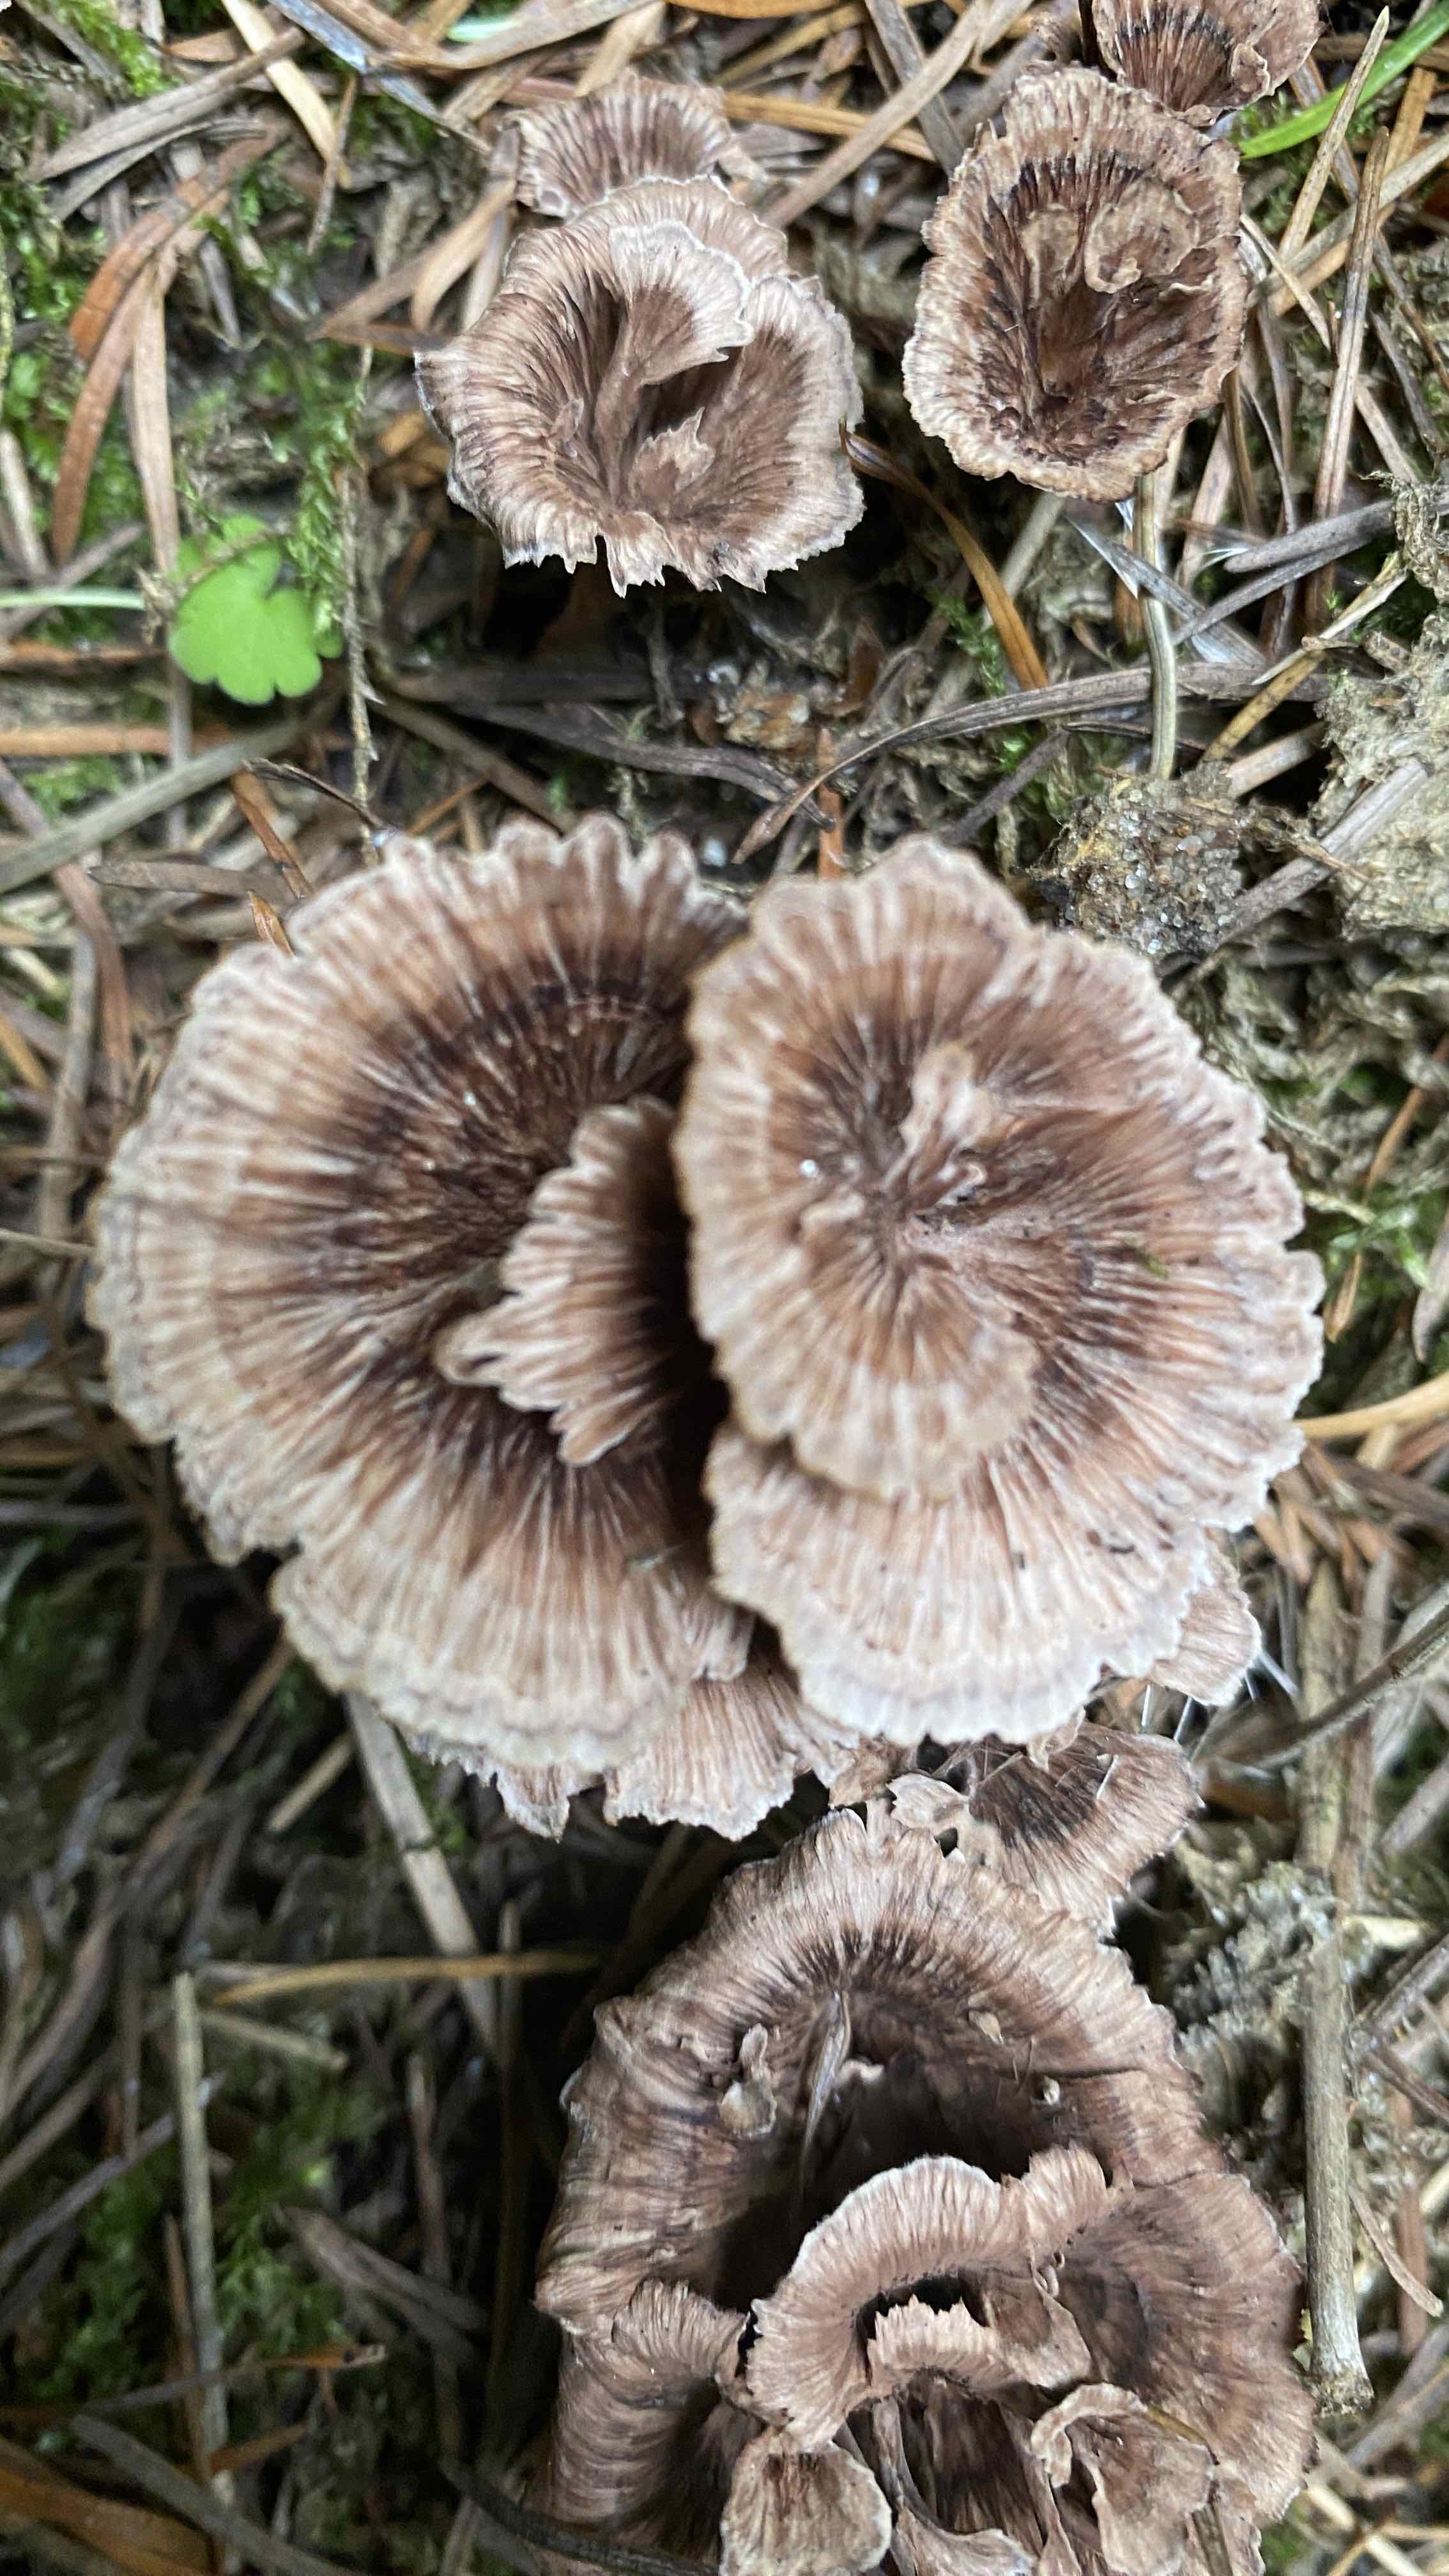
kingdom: Fungi
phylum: Basidiomycota
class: Agaricomycetes
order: Thelephorales
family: Thelephoraceae
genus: Thelephora
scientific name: Thelephora caryophyllea
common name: tragt-frynsesvamp
